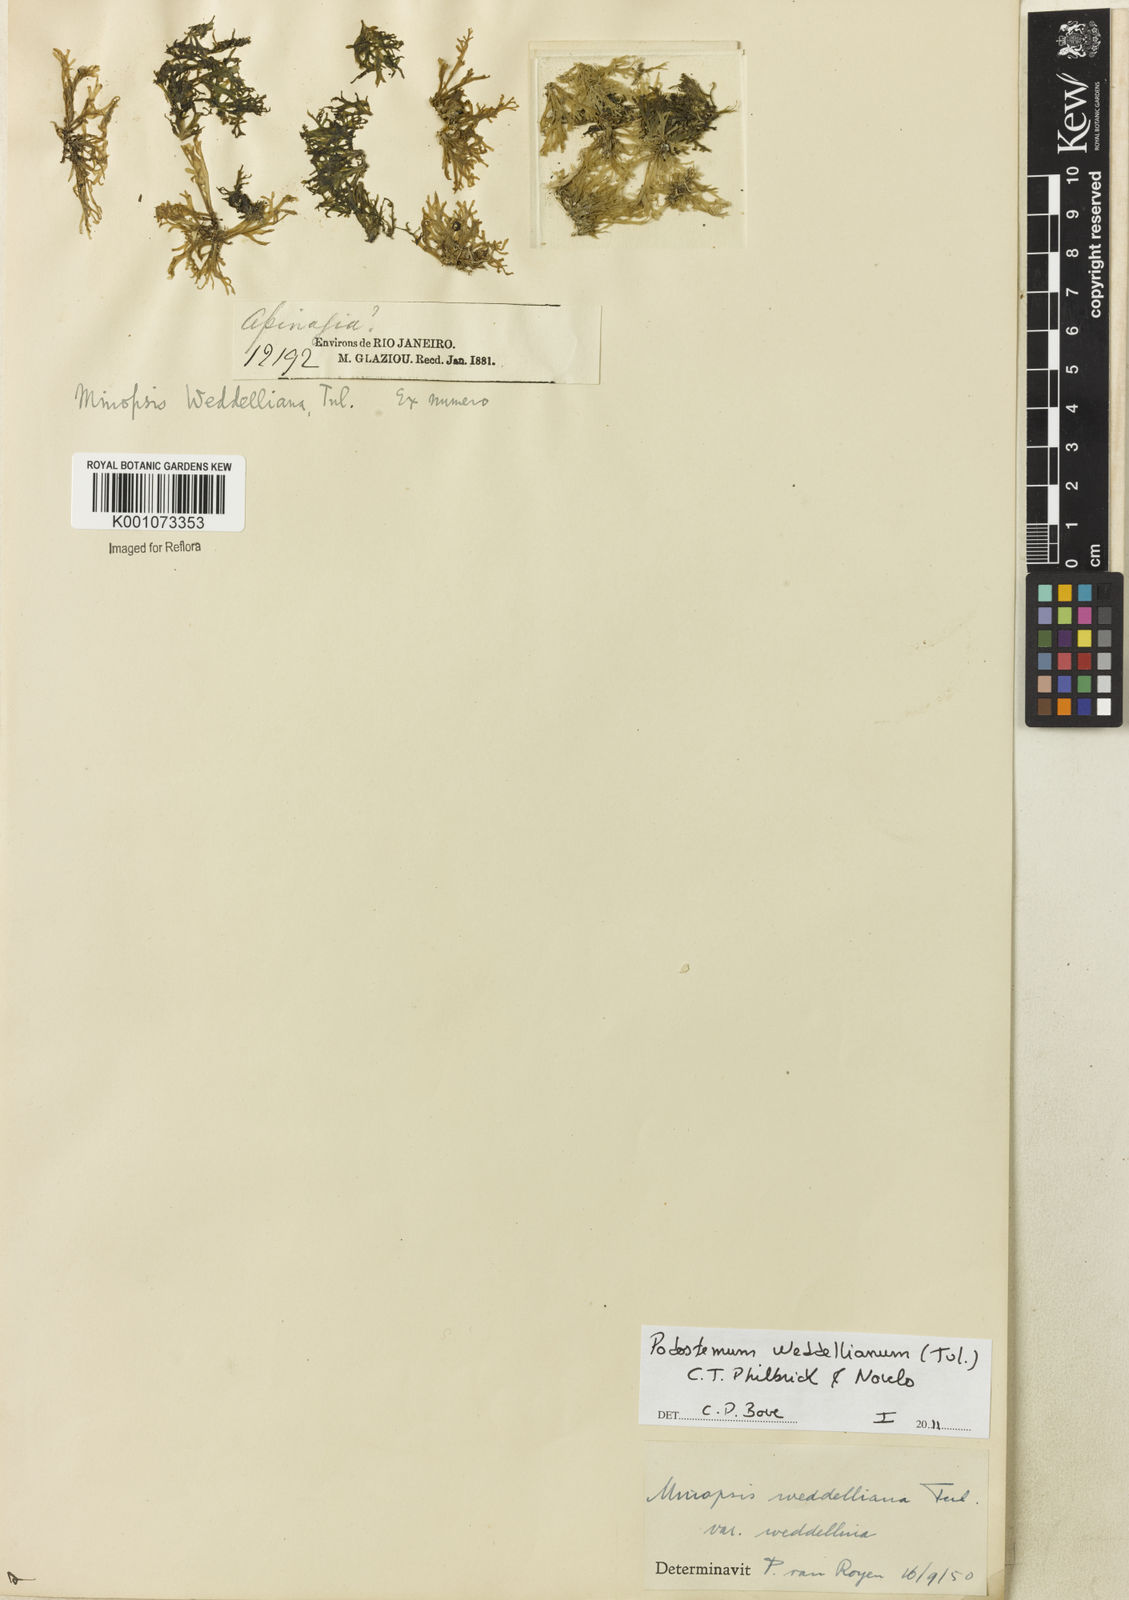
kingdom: Plantae
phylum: Tracheophyta
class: Magnoliopsida
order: Malpighiales
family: Podostemaceae
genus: Podostemum
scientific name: Podostemum weddellianum
